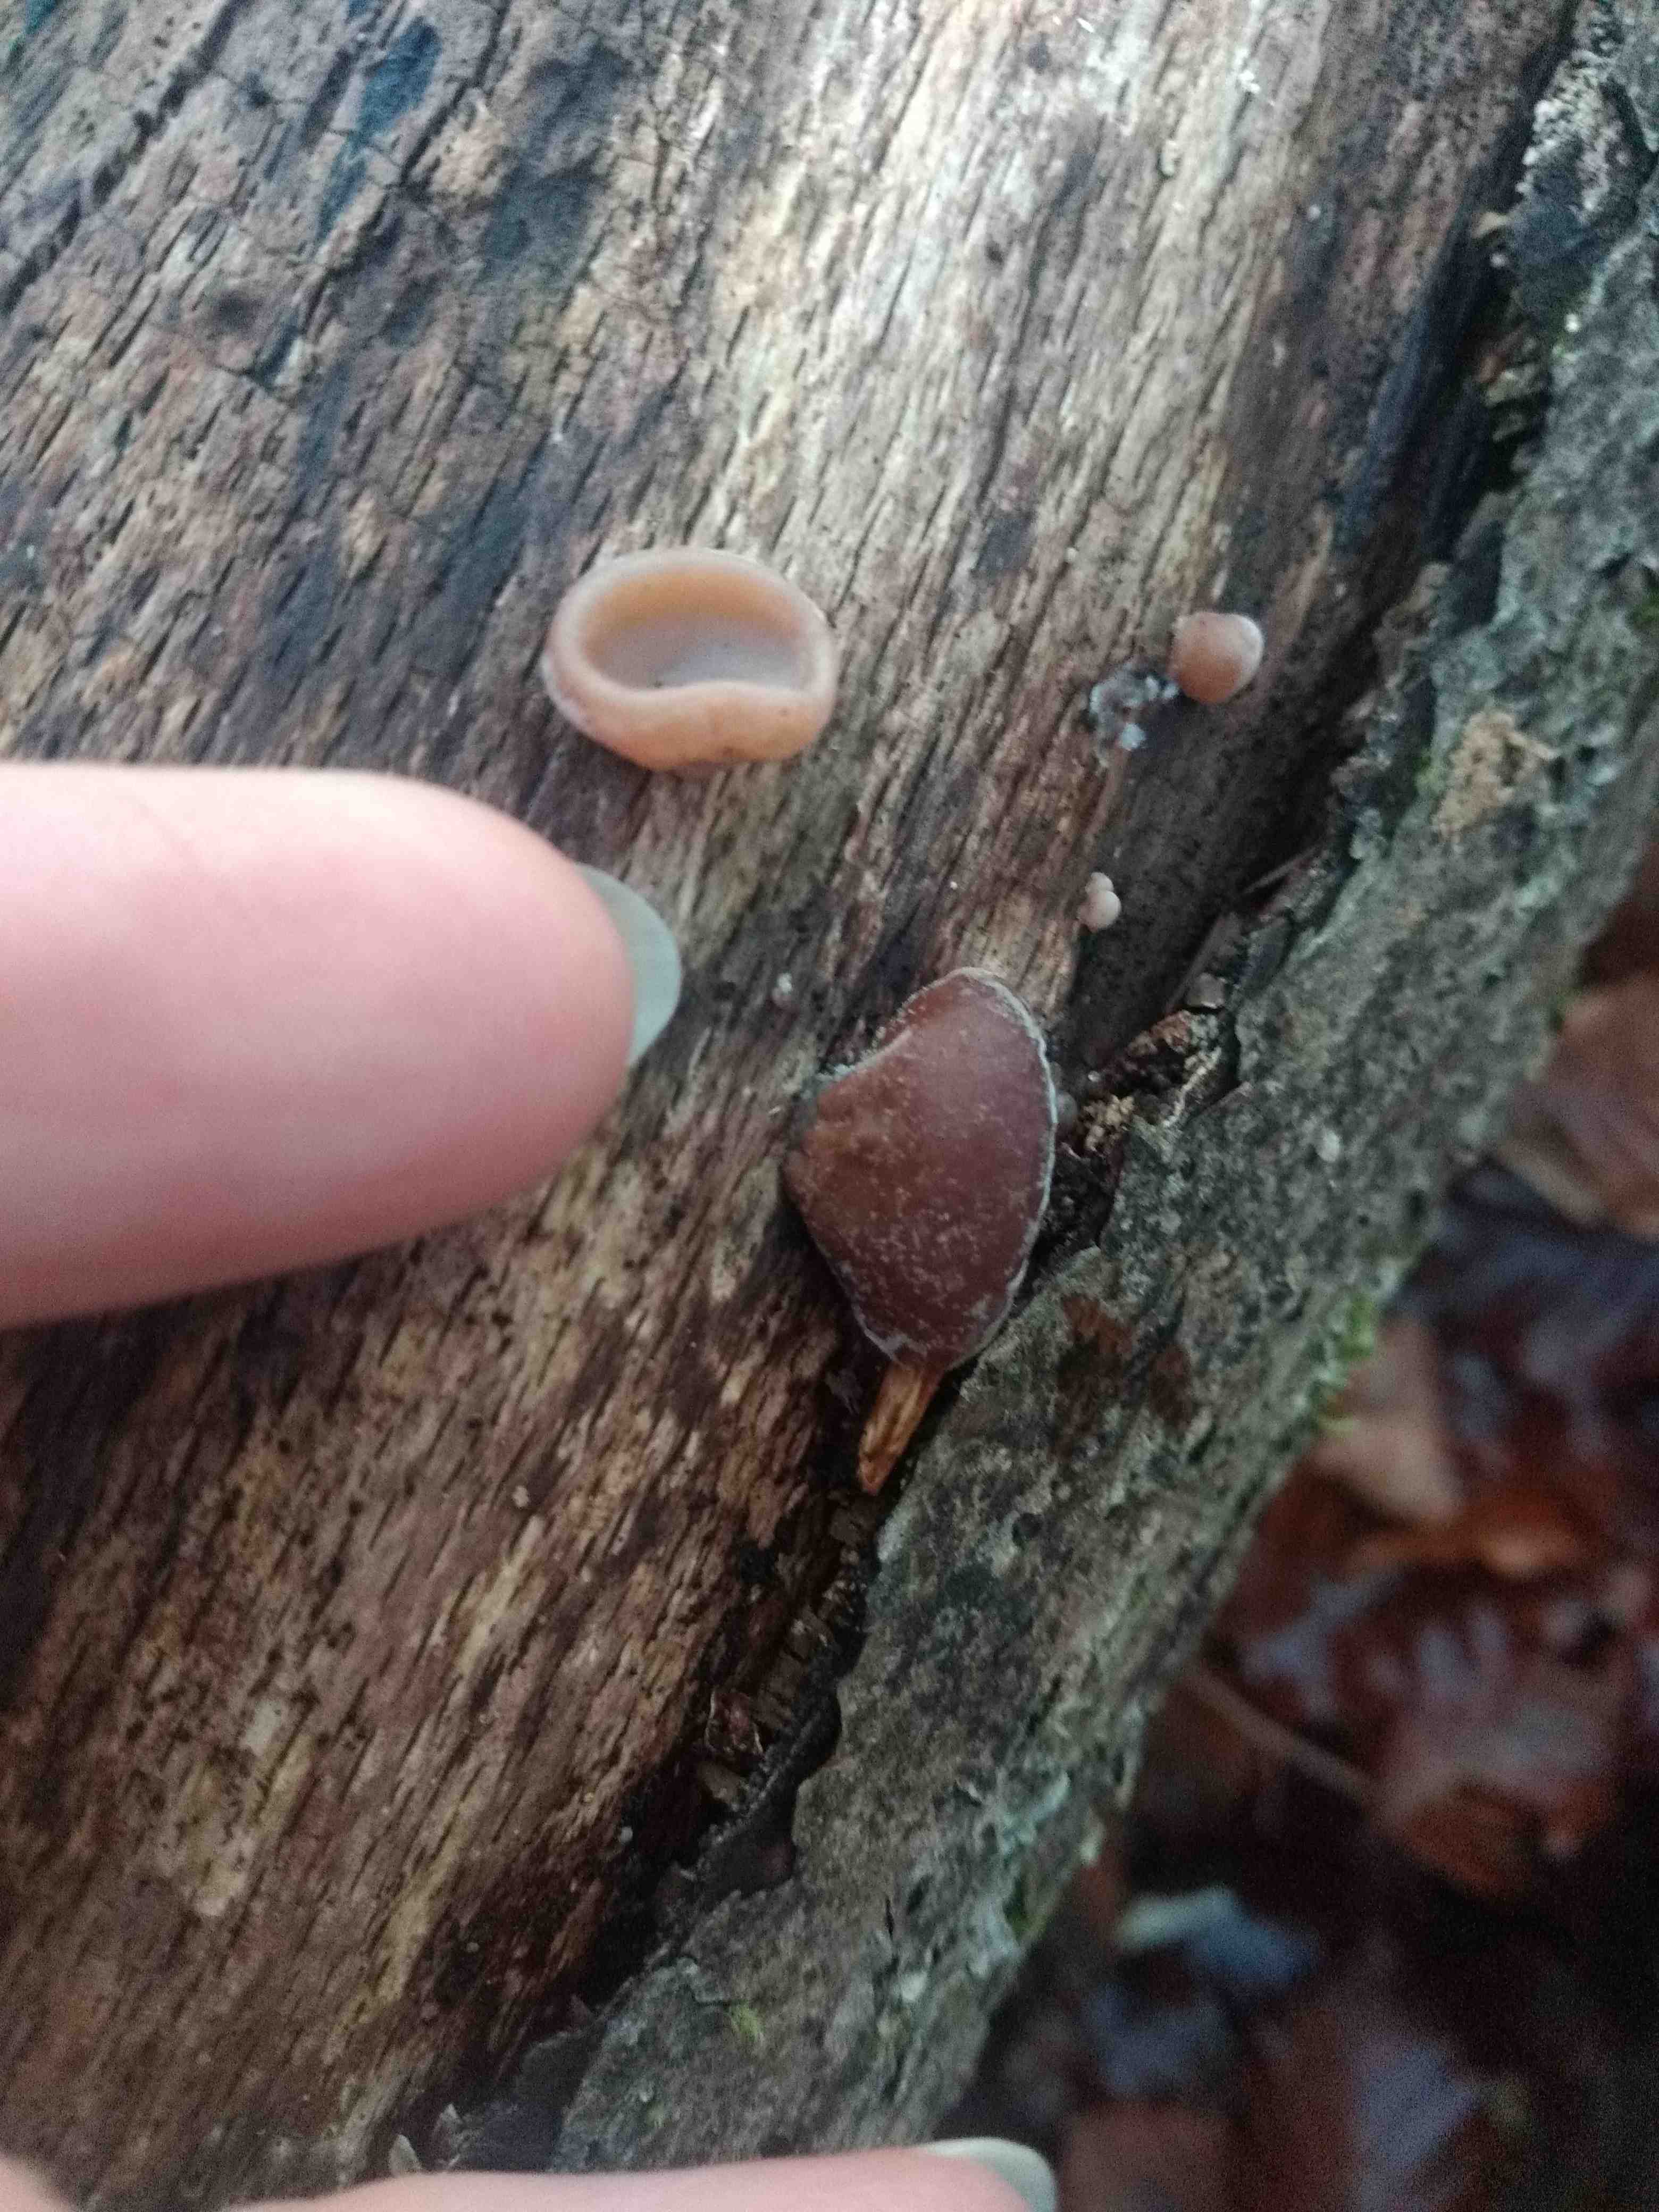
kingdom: Fungi
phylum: Basidiomycota
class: Agaricomycetes
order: Auriculariales
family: Auriculariaceae
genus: Auricularia
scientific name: Auricularia auricula-judae
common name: almindelig judasøre
